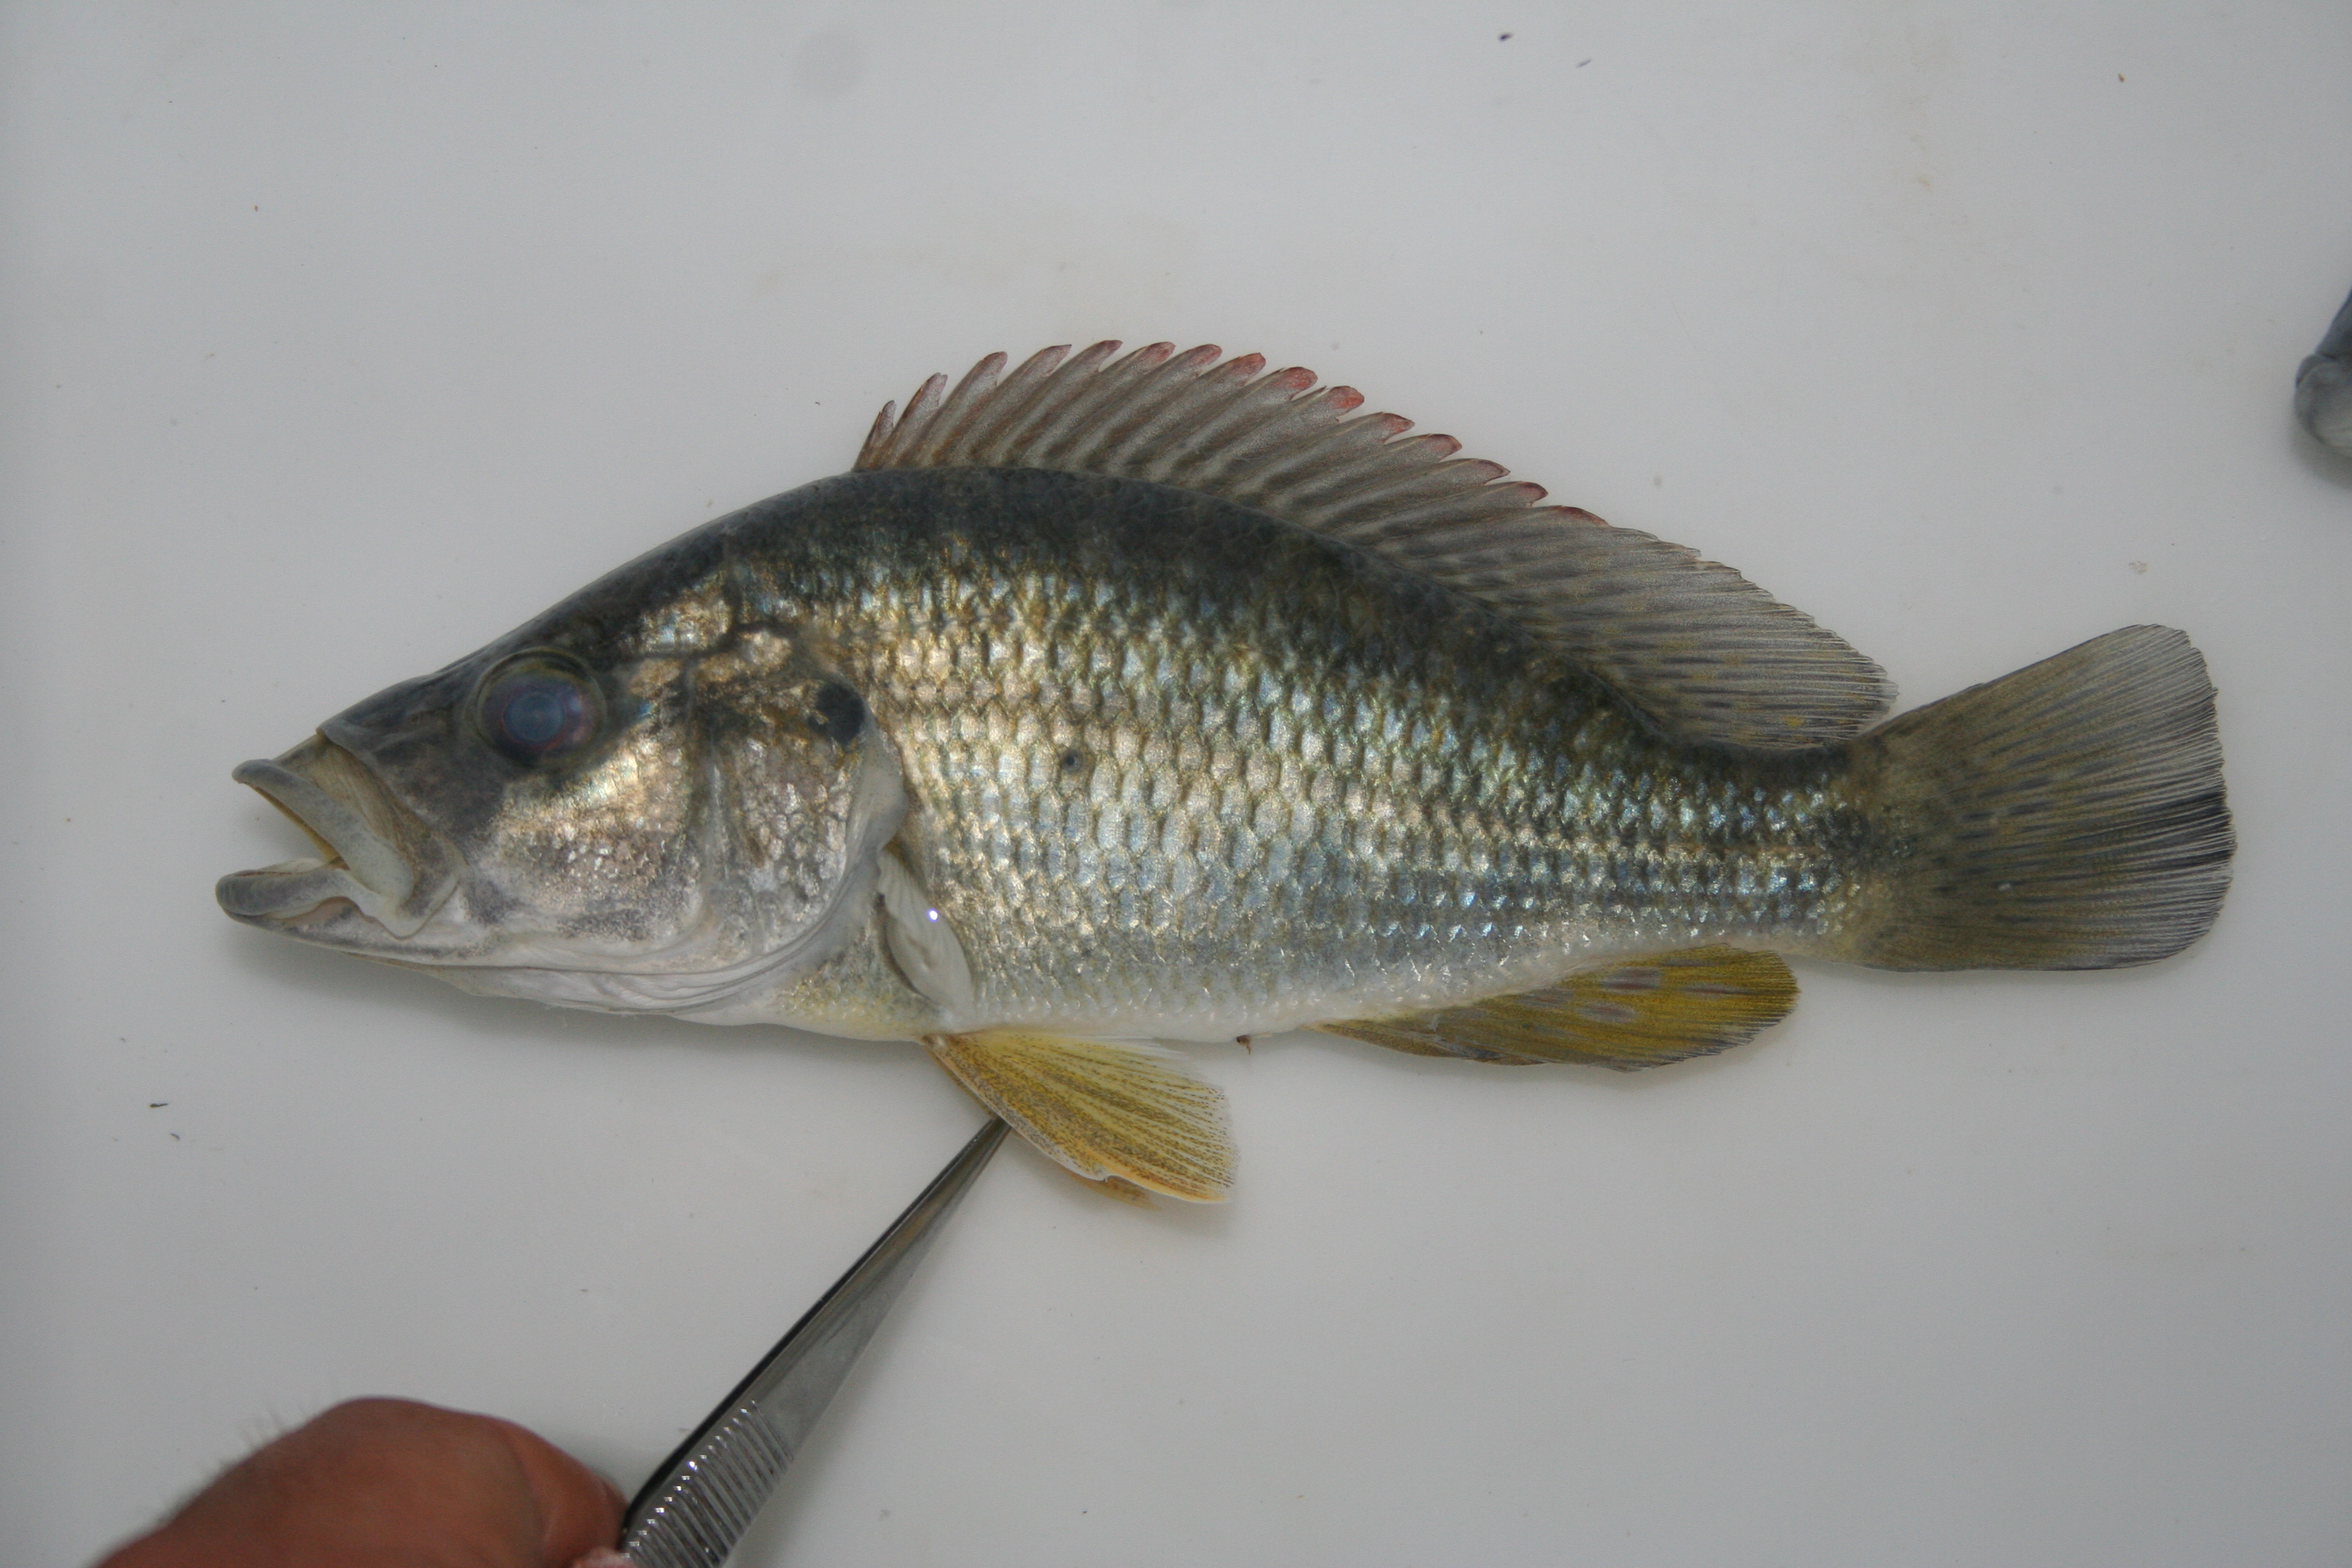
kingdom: Animalia
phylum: Chordata
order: Perciformes
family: Cichlidae
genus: Serranochromis
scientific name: Serranochromis
